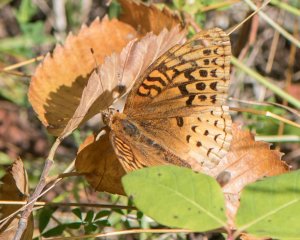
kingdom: Animalia
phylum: Arthropoda
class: Insecta
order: Lepidoptera
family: Nymphalidae
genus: Speyeria
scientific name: Speyeria cybele
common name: Great Spangled Fritillary
